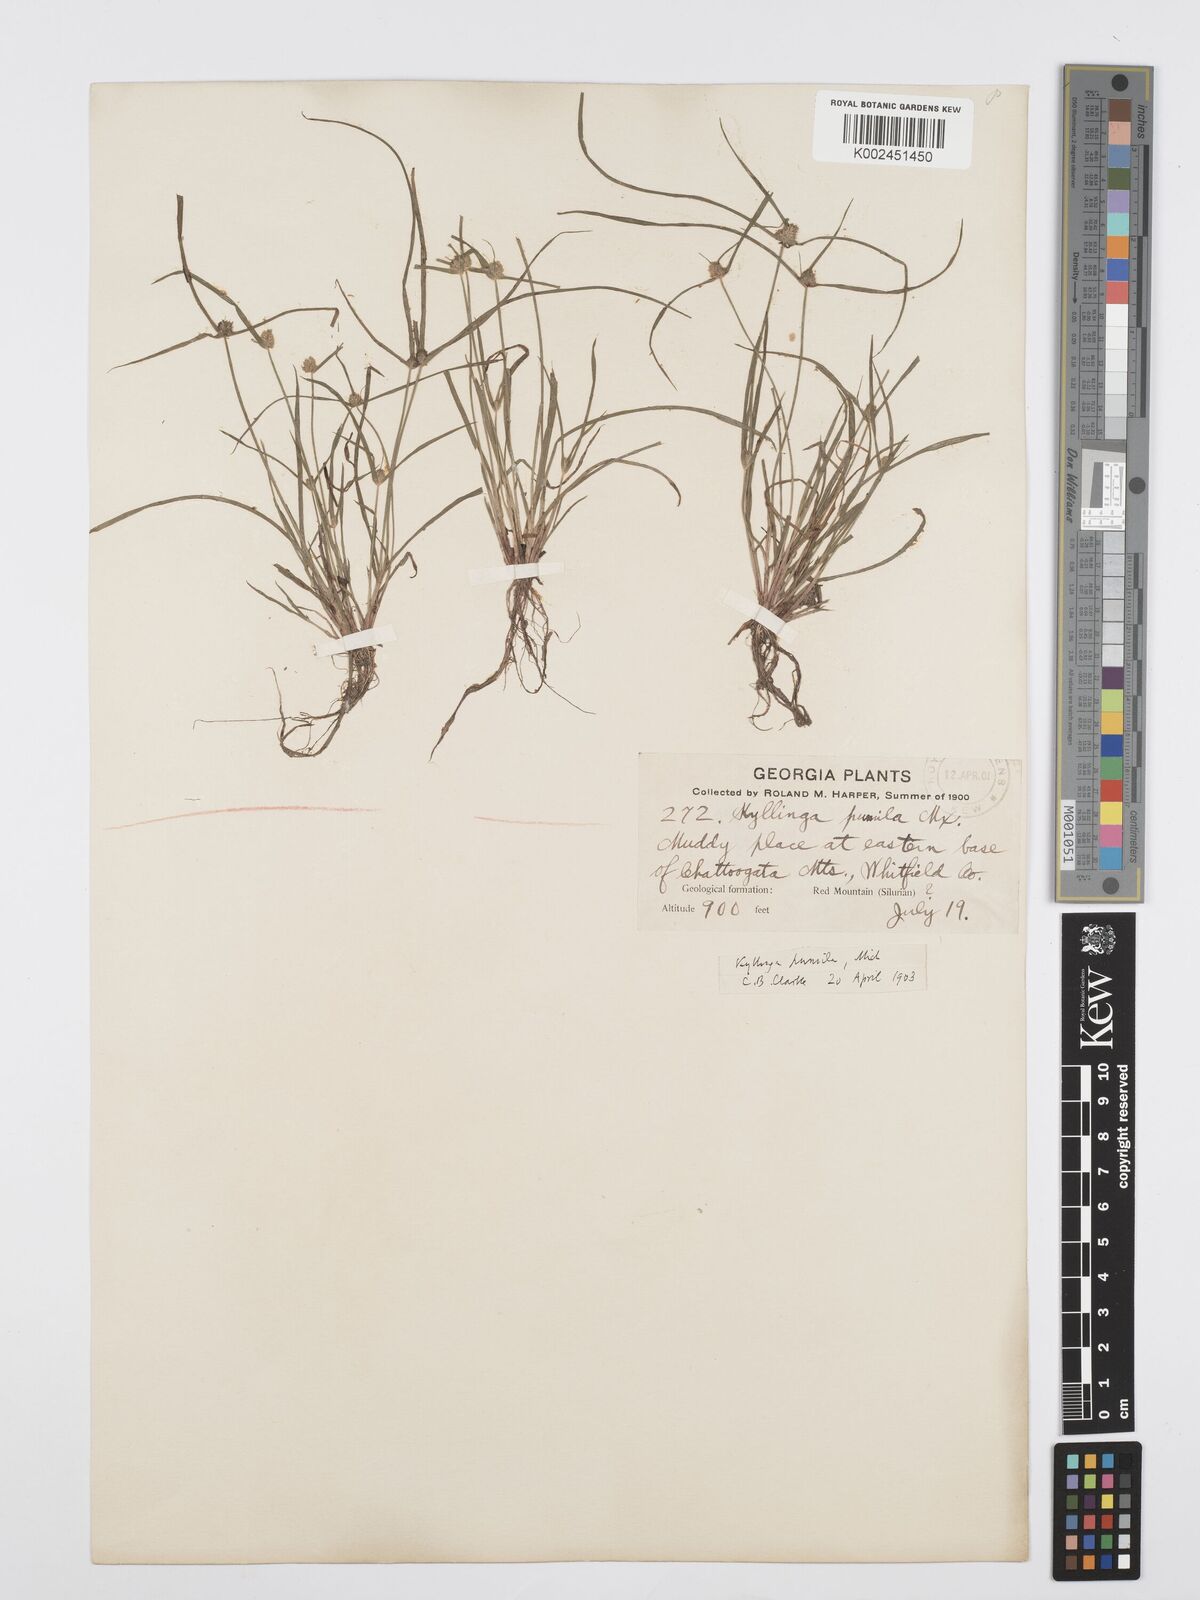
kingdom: Plantae
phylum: Tracheophyta
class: Liliopsida
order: Poales
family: Cyperaceae
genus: Cyperus
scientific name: Cyperus
